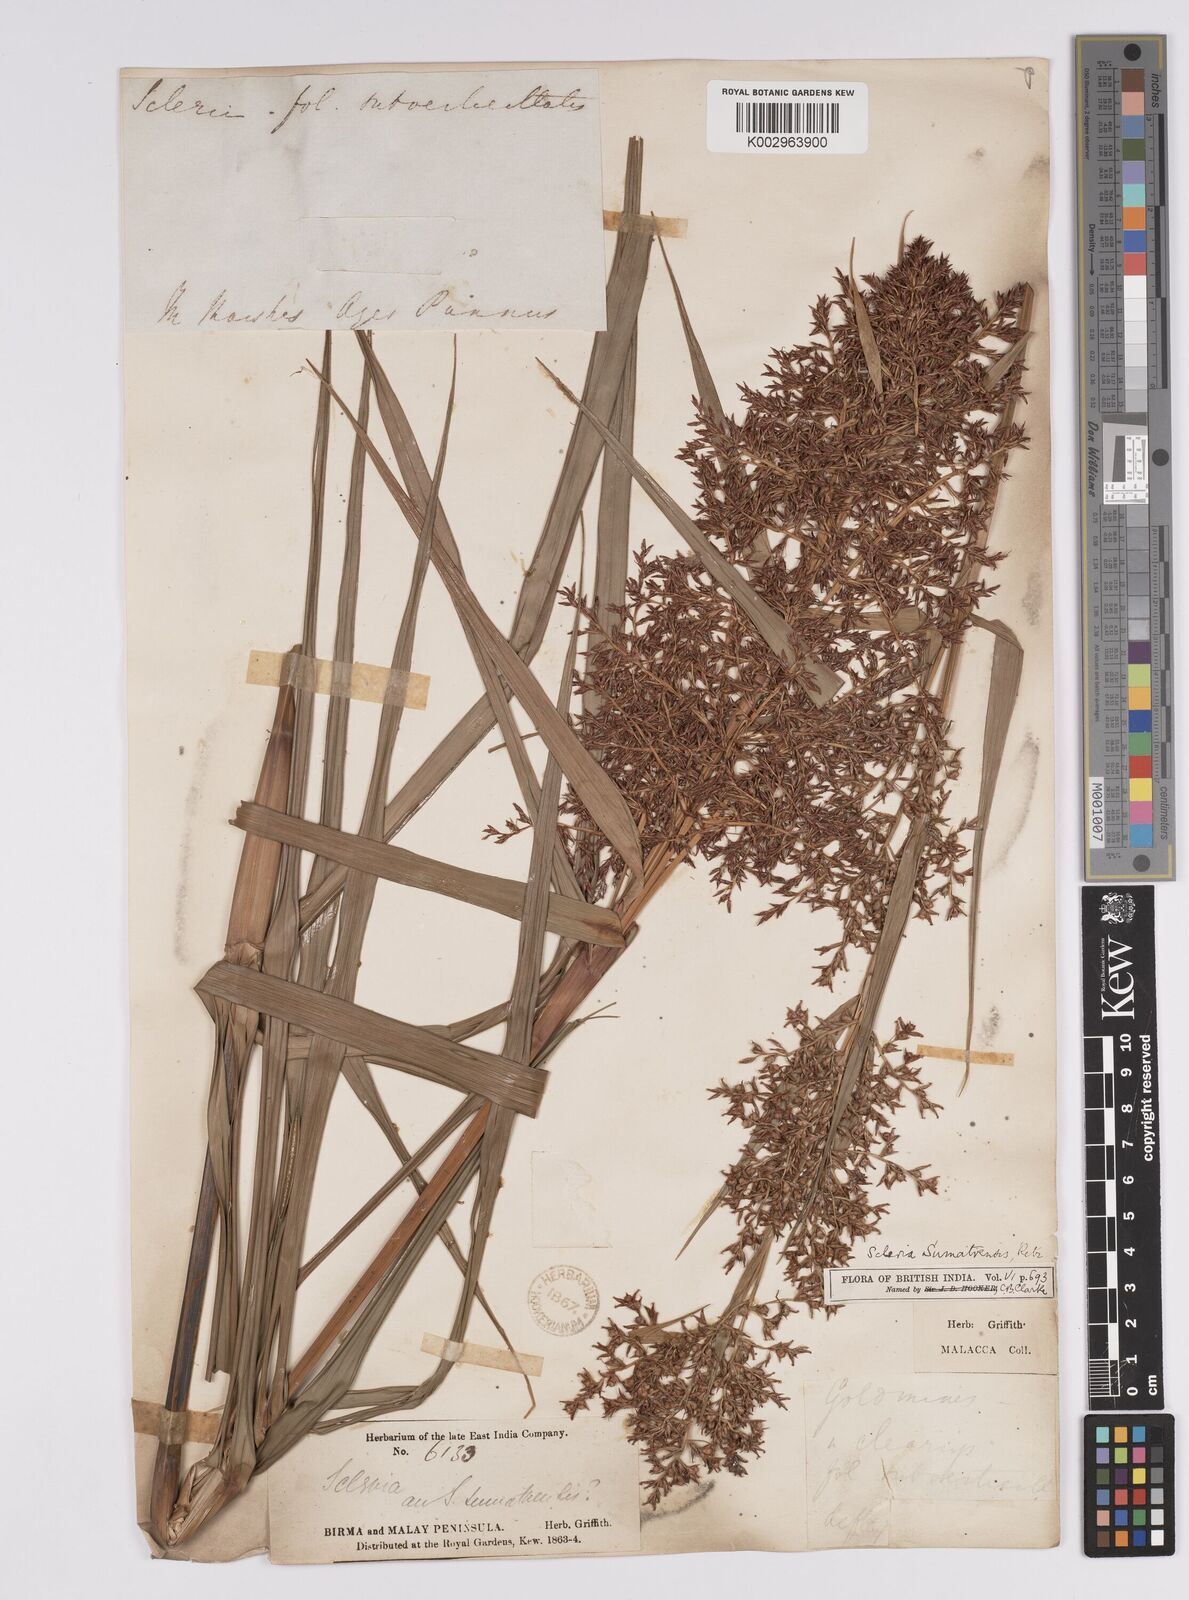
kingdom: Plantae
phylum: Tracheophyta
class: Liliopsida
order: Poales
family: Cyperaceae
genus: Scleria
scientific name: Scleria sumatrensis
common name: Sumatran scleria
